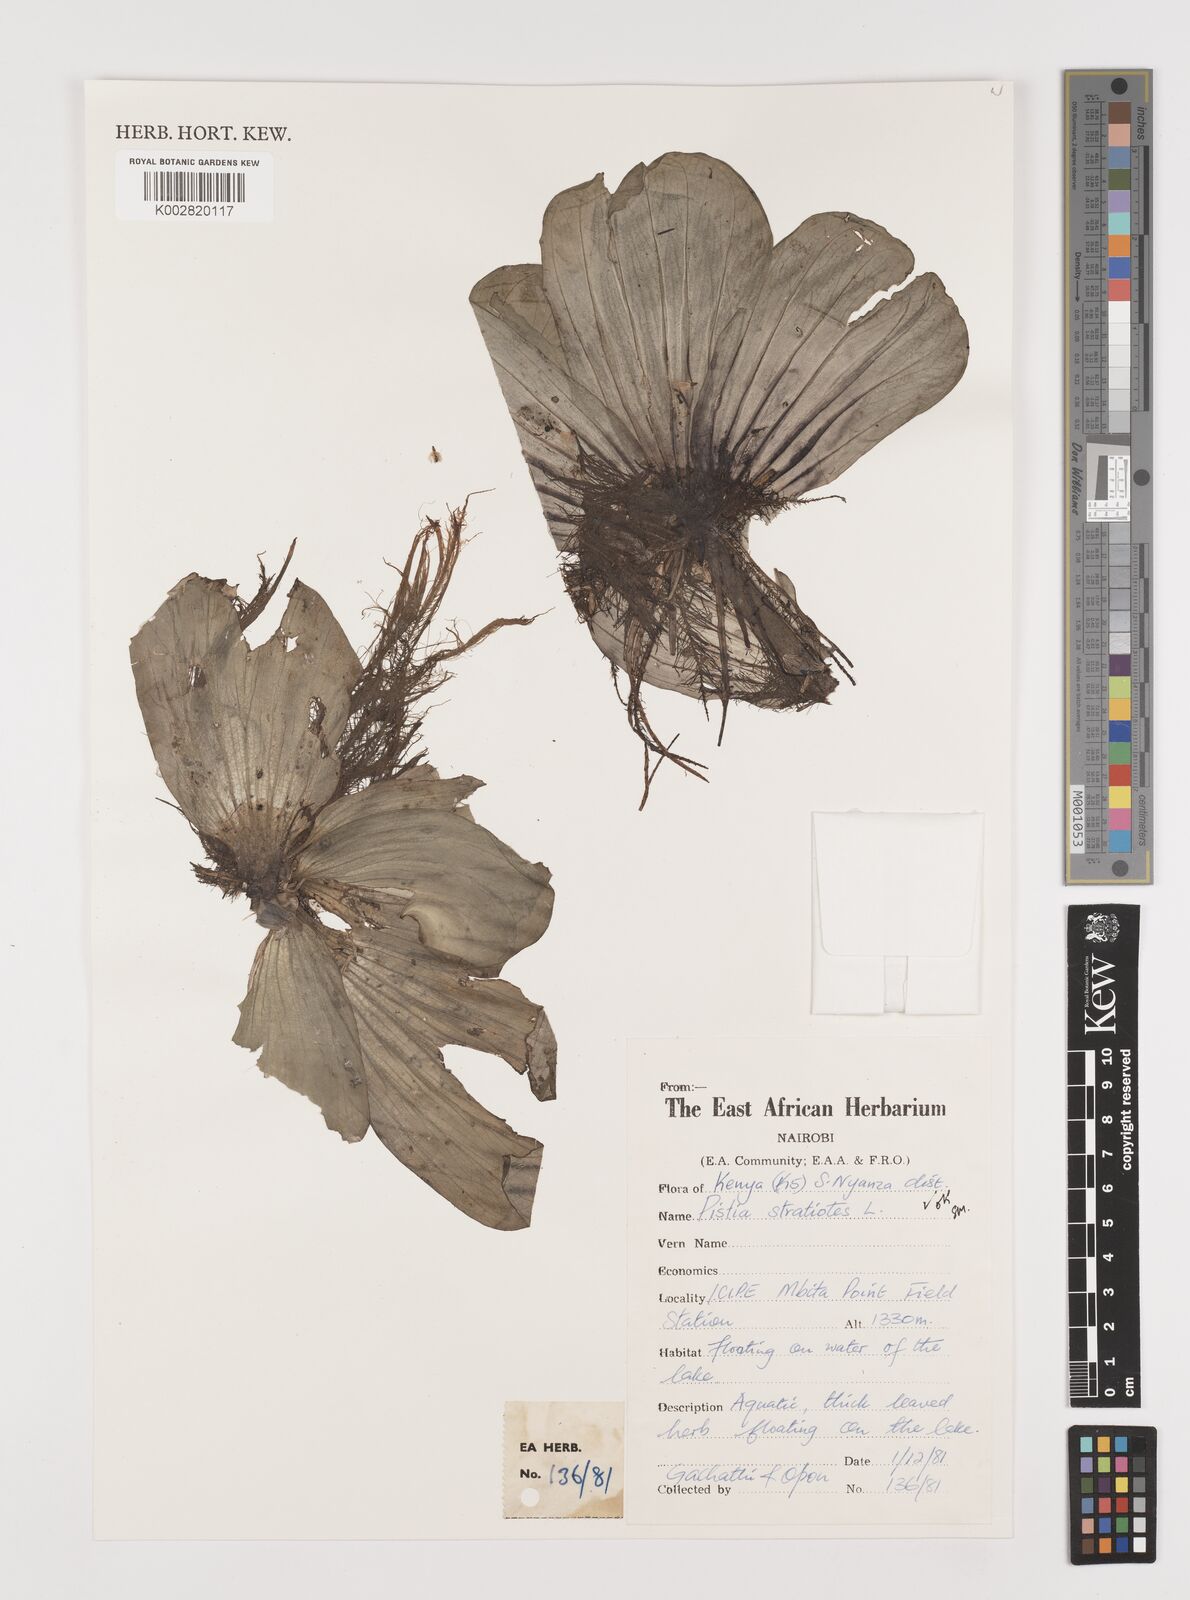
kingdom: Plantae
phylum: Tracheophyta
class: Liliopsida
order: Alismatales
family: Araceae
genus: Pistia
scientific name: Pistia stratiotes
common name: Water lettuce
